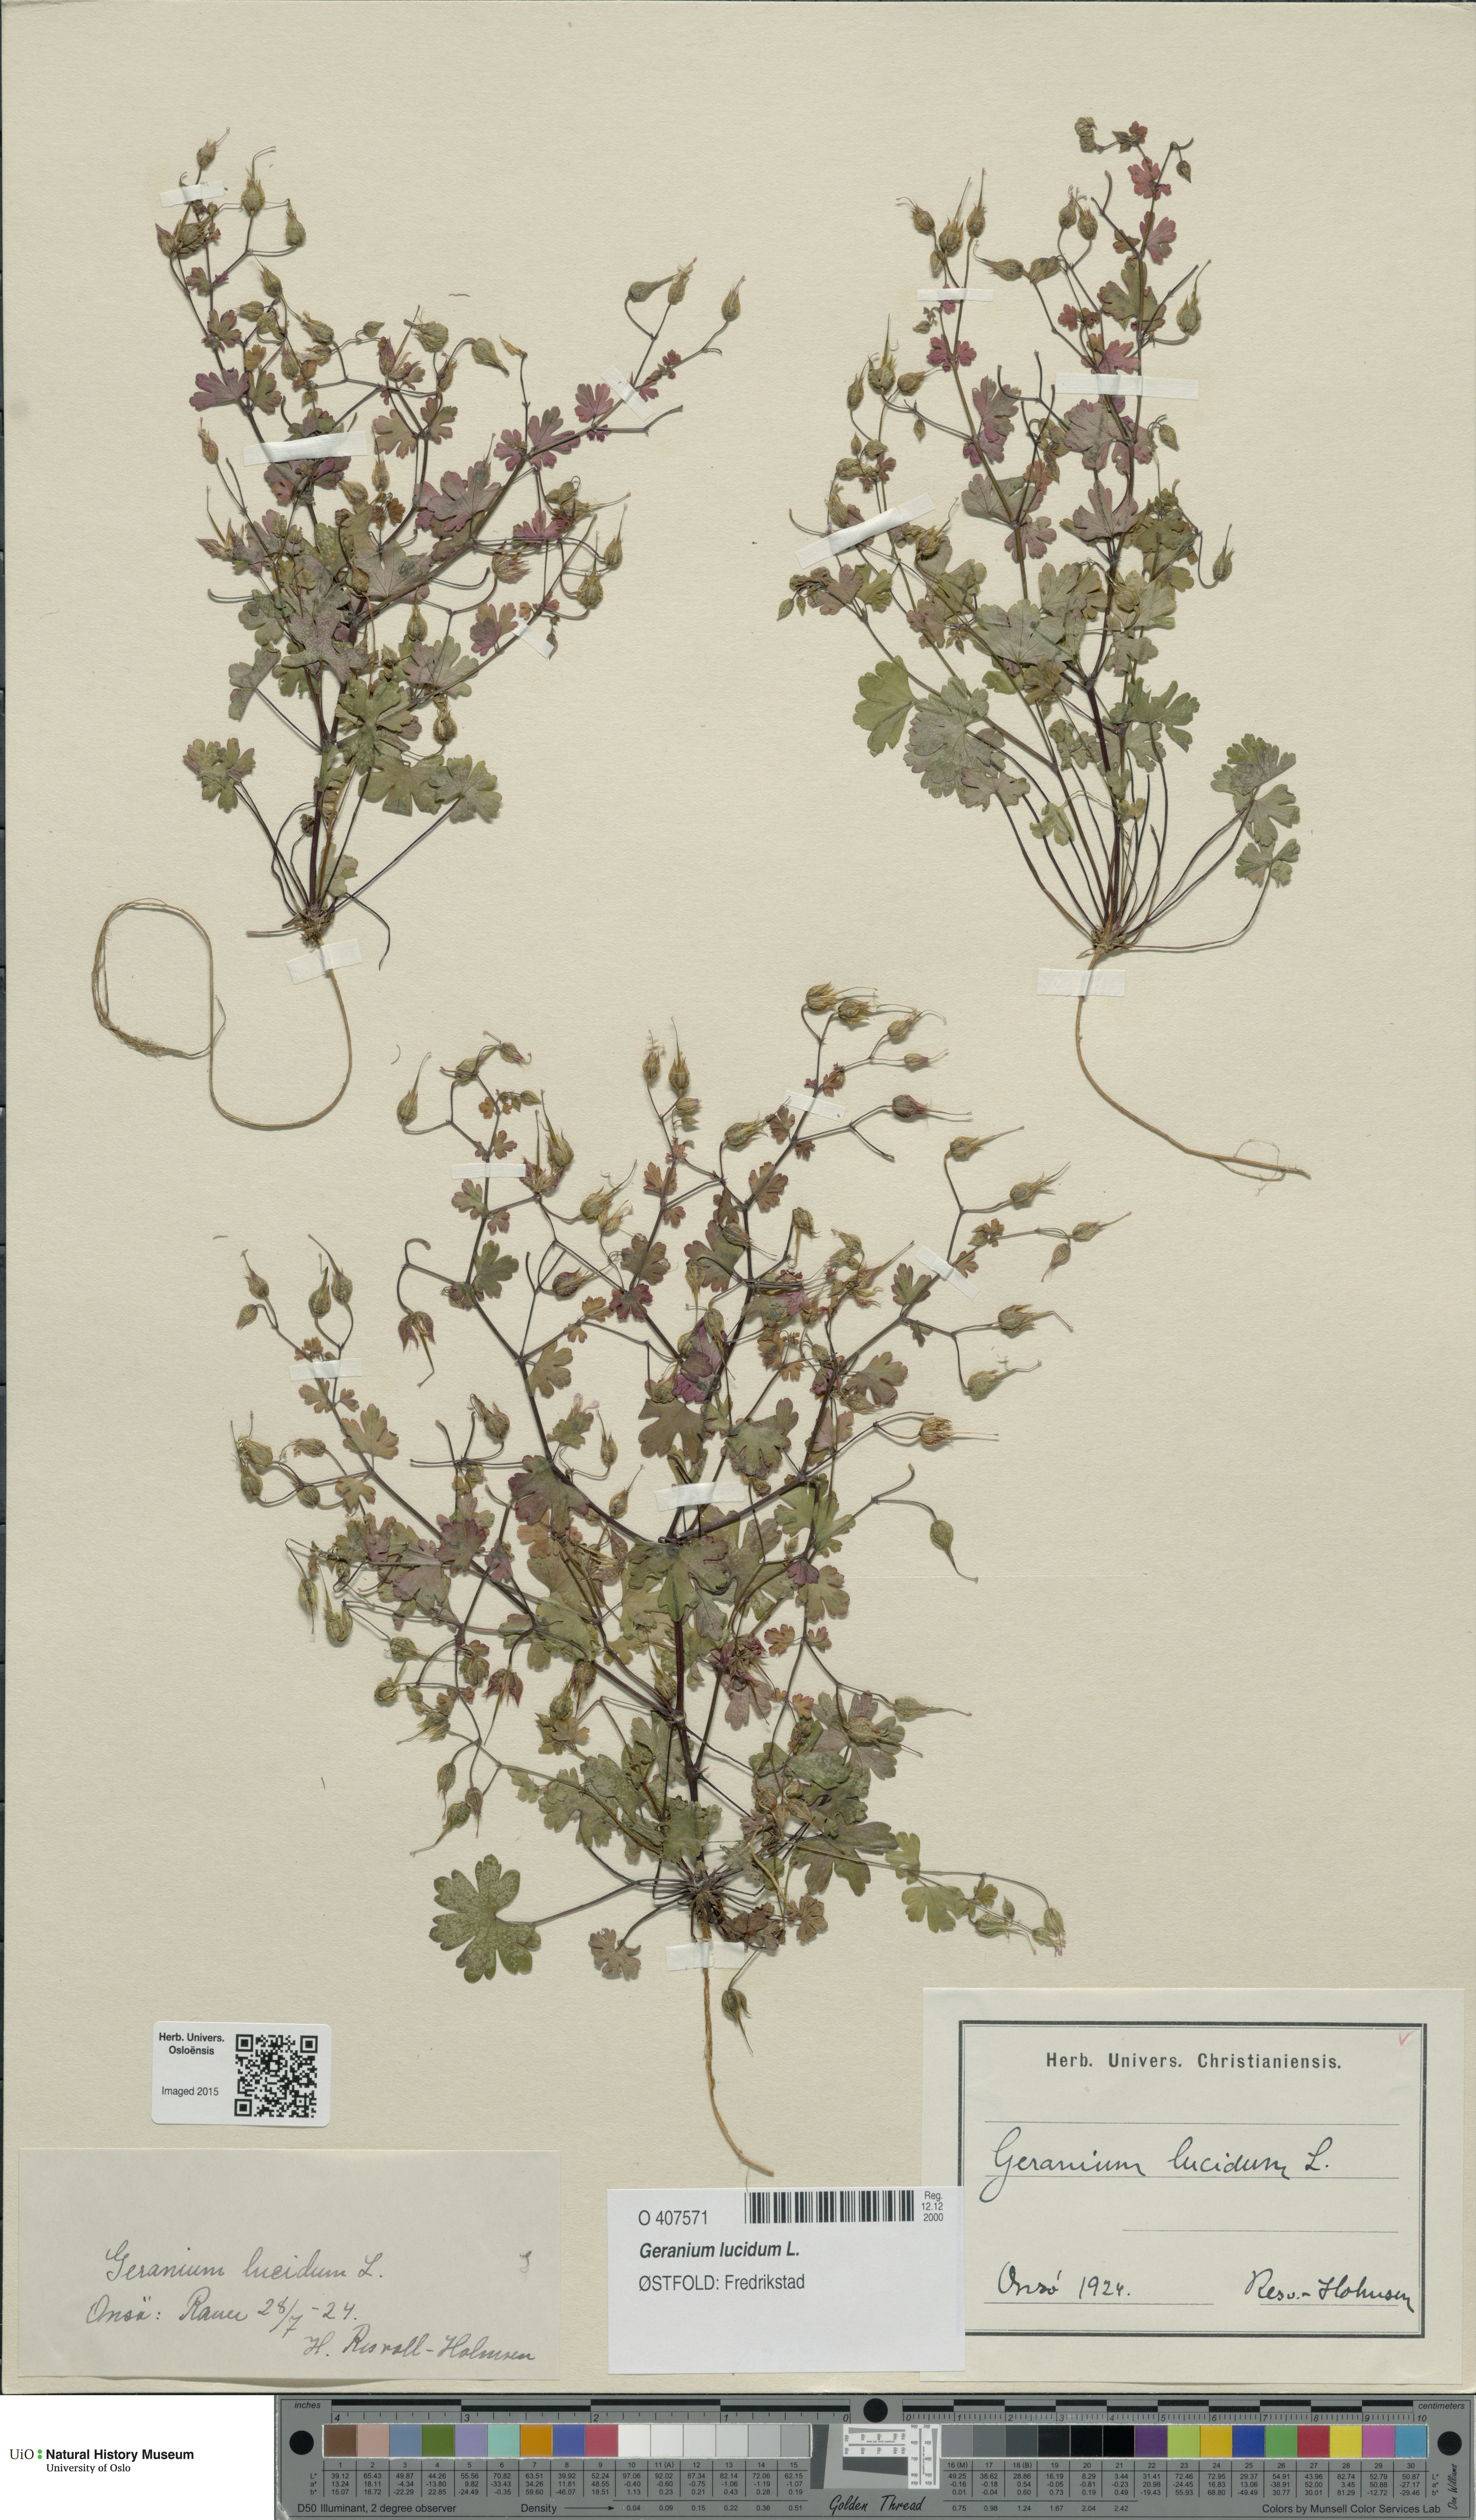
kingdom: Plantae
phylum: Tracheophyta
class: Magnoliopsida
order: Geraniales
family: Geraniaceae
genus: Geranium
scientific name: Geranium lucidum
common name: Shining crane's-bill
